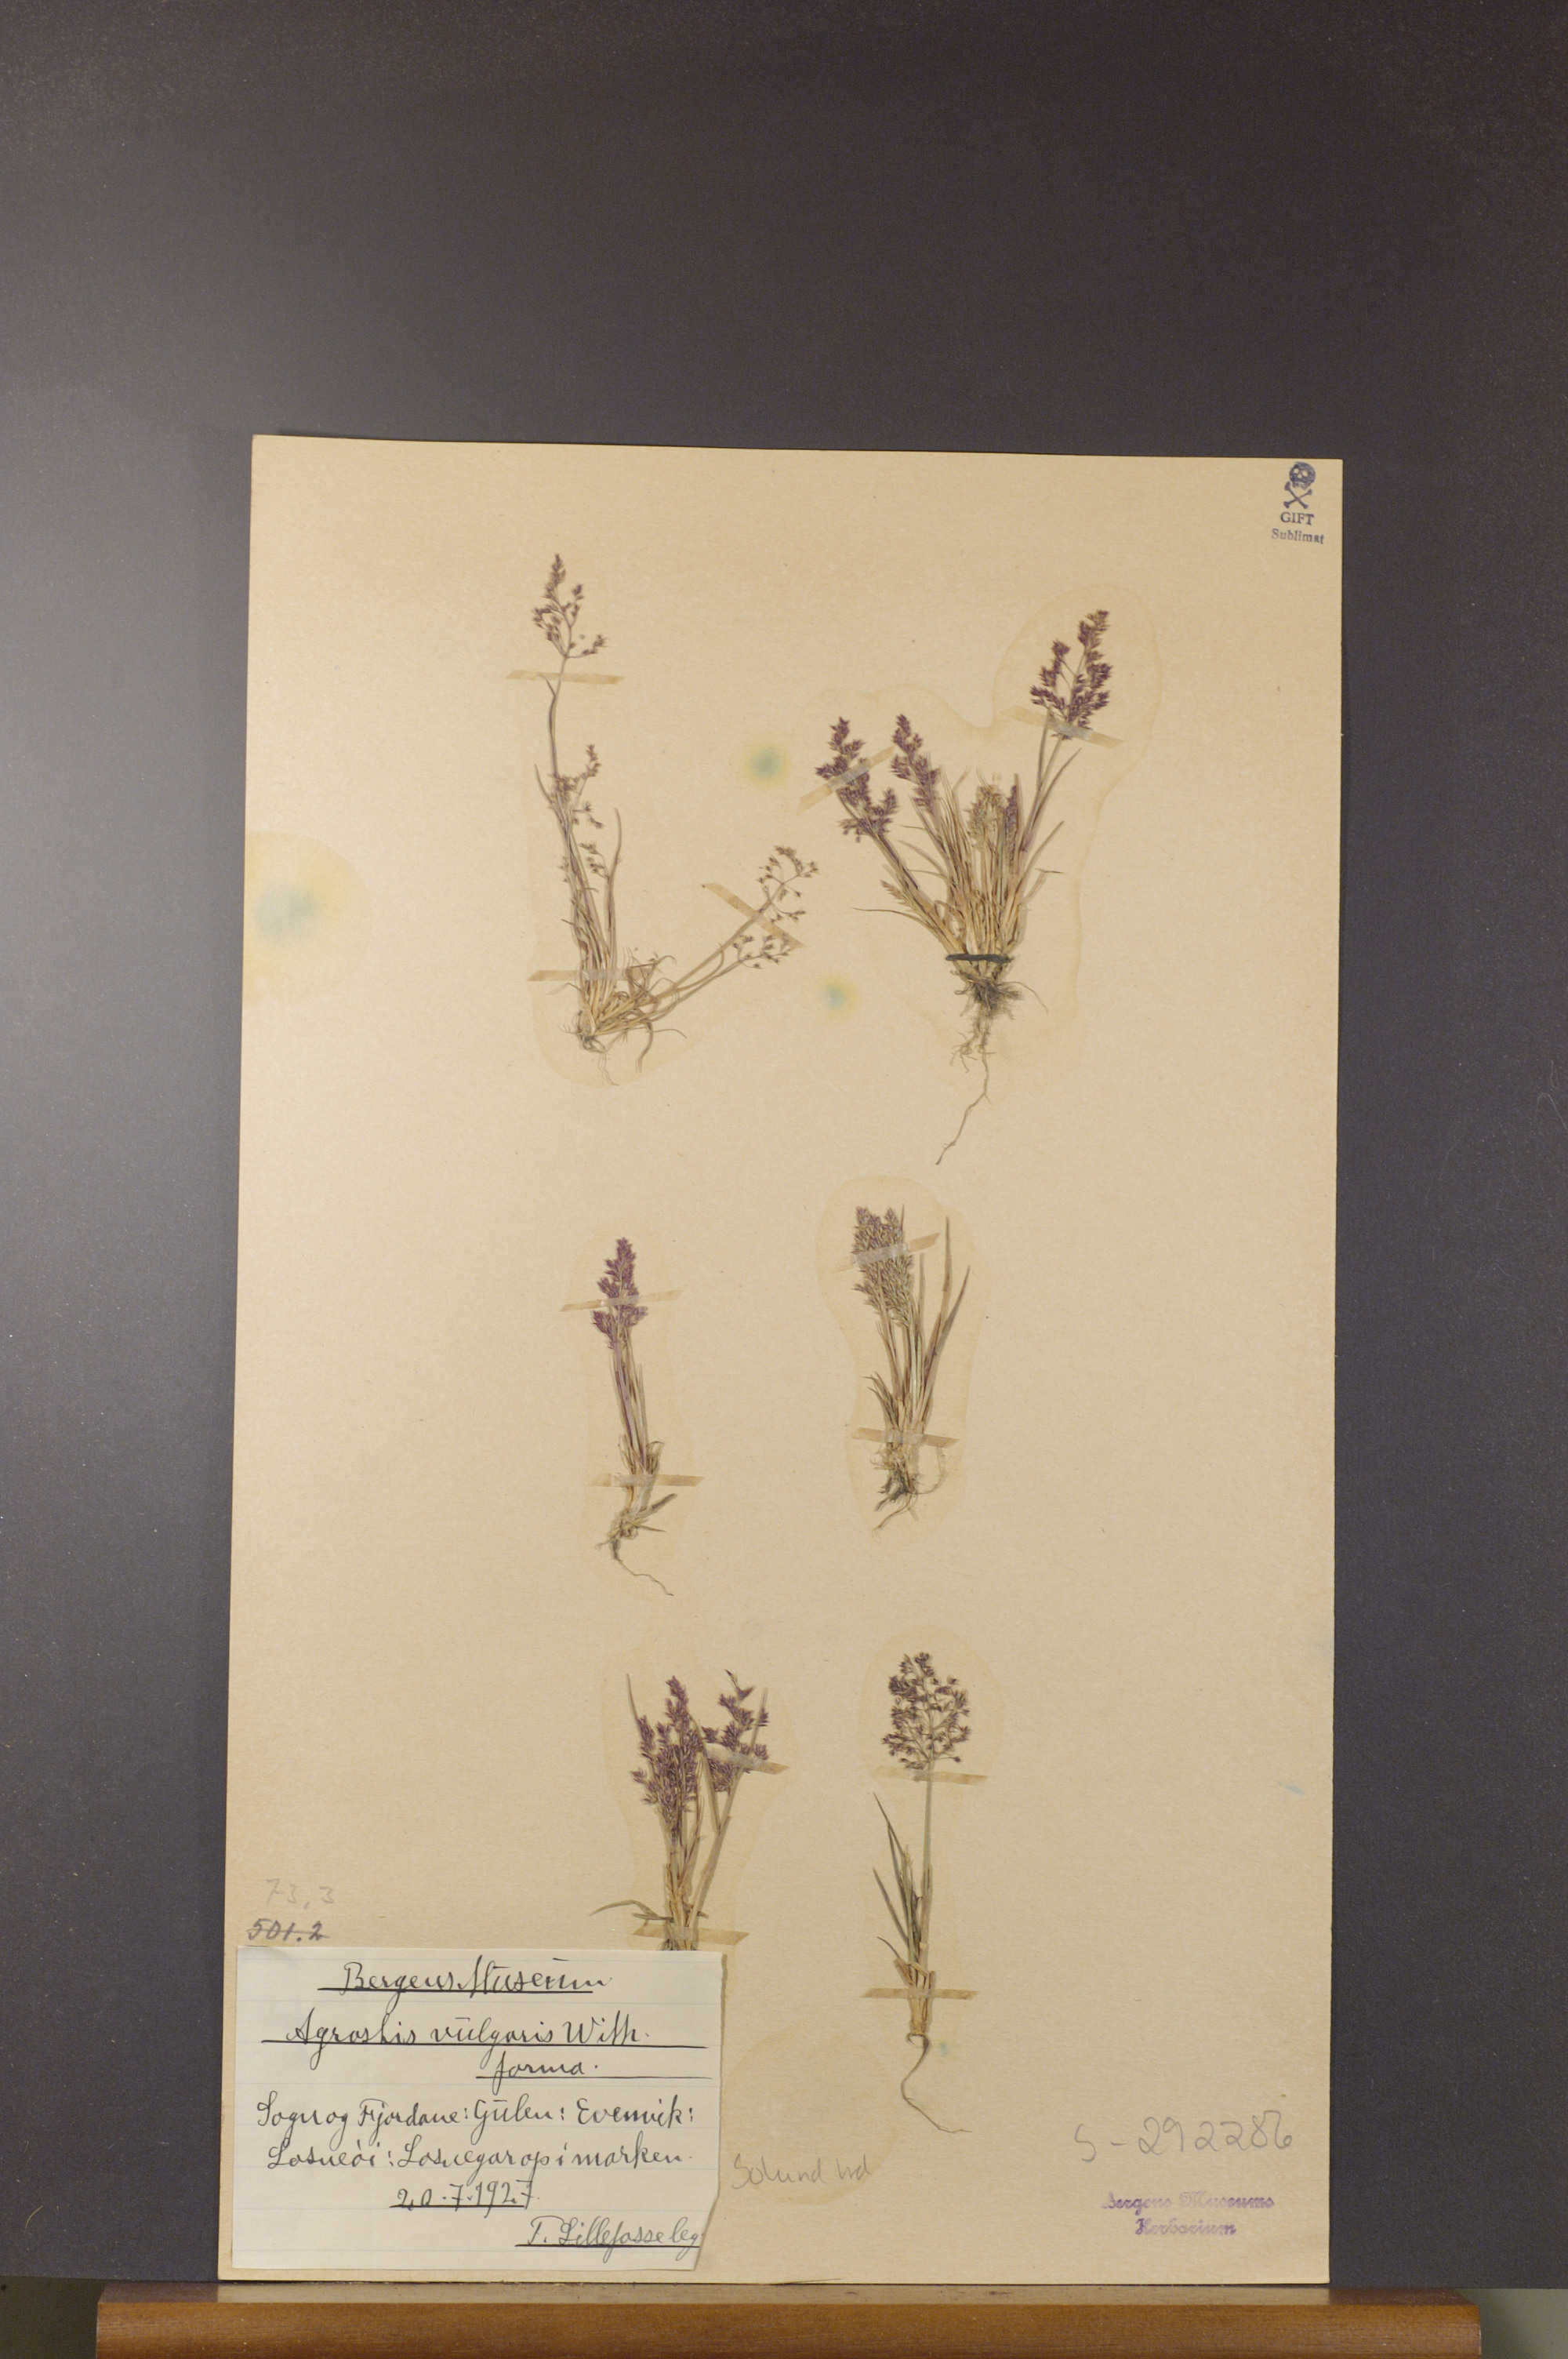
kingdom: Plantae
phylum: Tracheophyta
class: Liliopsida
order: Poales
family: Poaceae
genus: Agrostis
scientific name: Agrostis capillaris
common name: Colonial bentgrass
